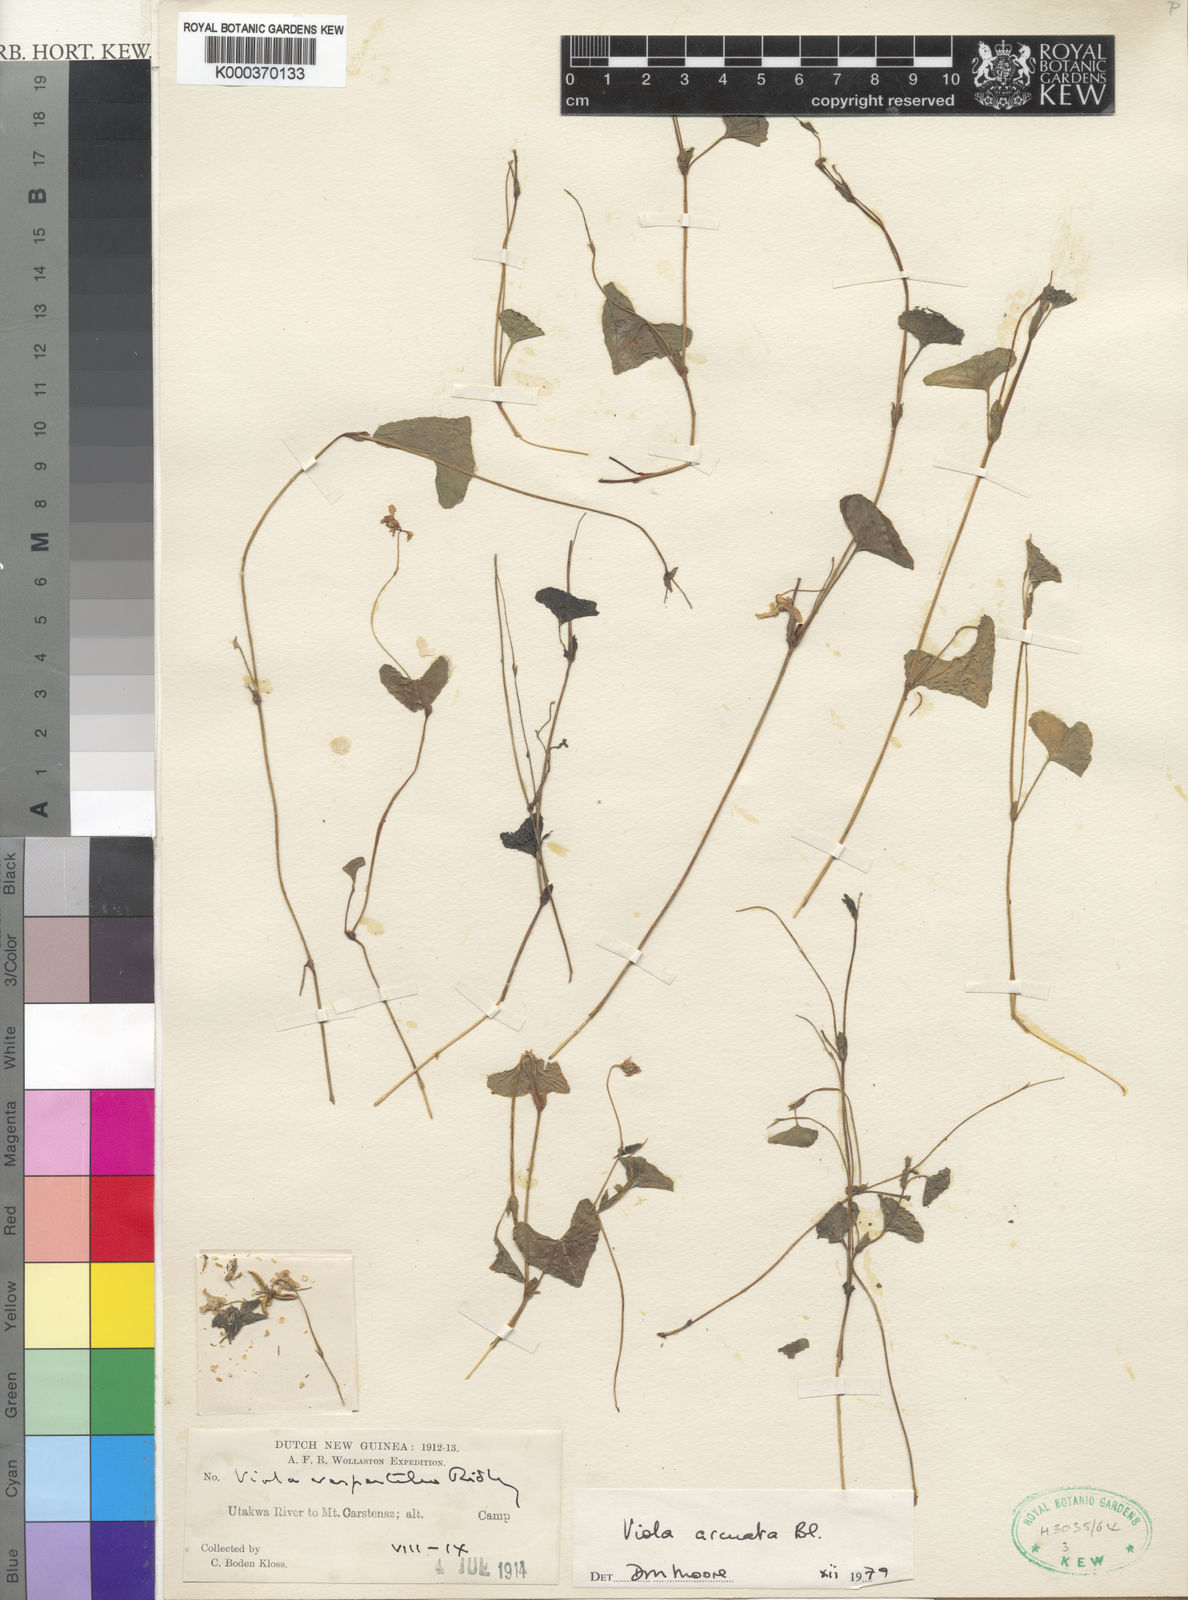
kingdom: Plantae
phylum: Tracheophyta
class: Magnoliopsida
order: Malpighiales
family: Violaceae
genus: Viola
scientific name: Viola hamiltoniana
